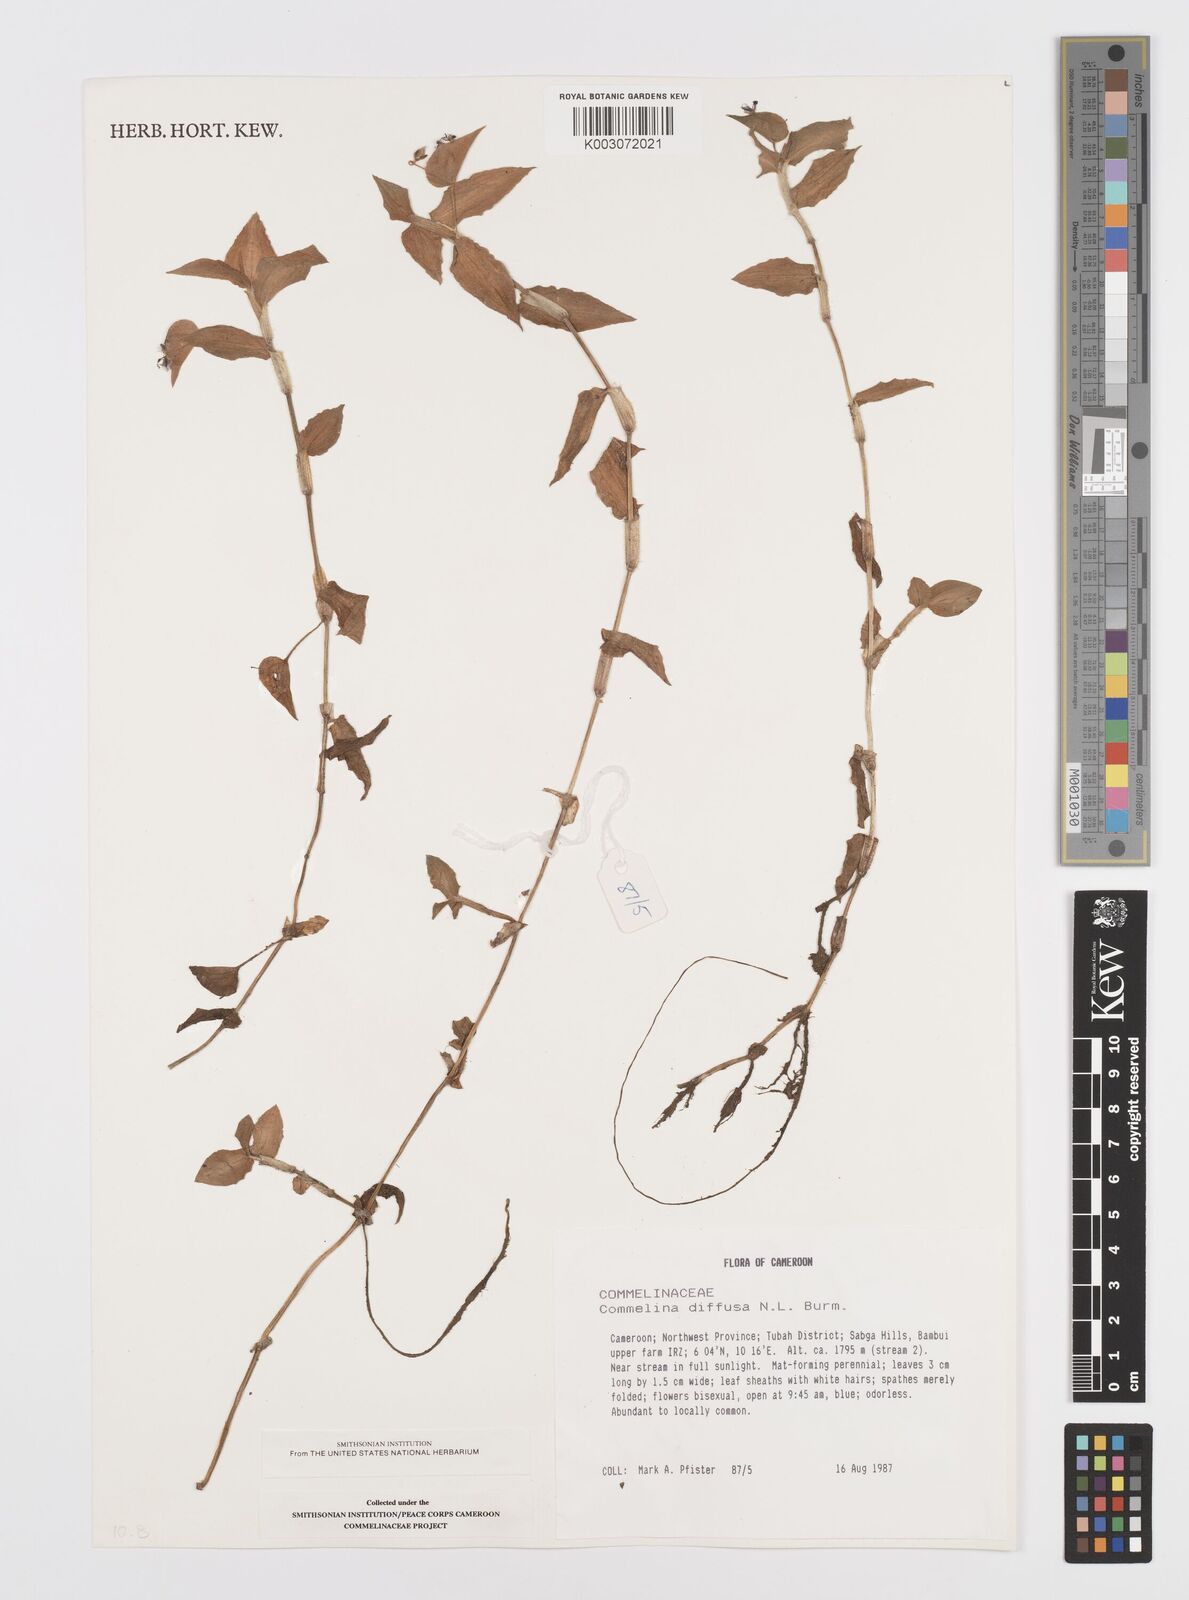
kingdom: Plantae
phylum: Tracheophyta
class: Liliopsida
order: Commelinales
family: Commelinaceae
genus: Commelina
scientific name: Commelina diffusa
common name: Climbing dayflower
